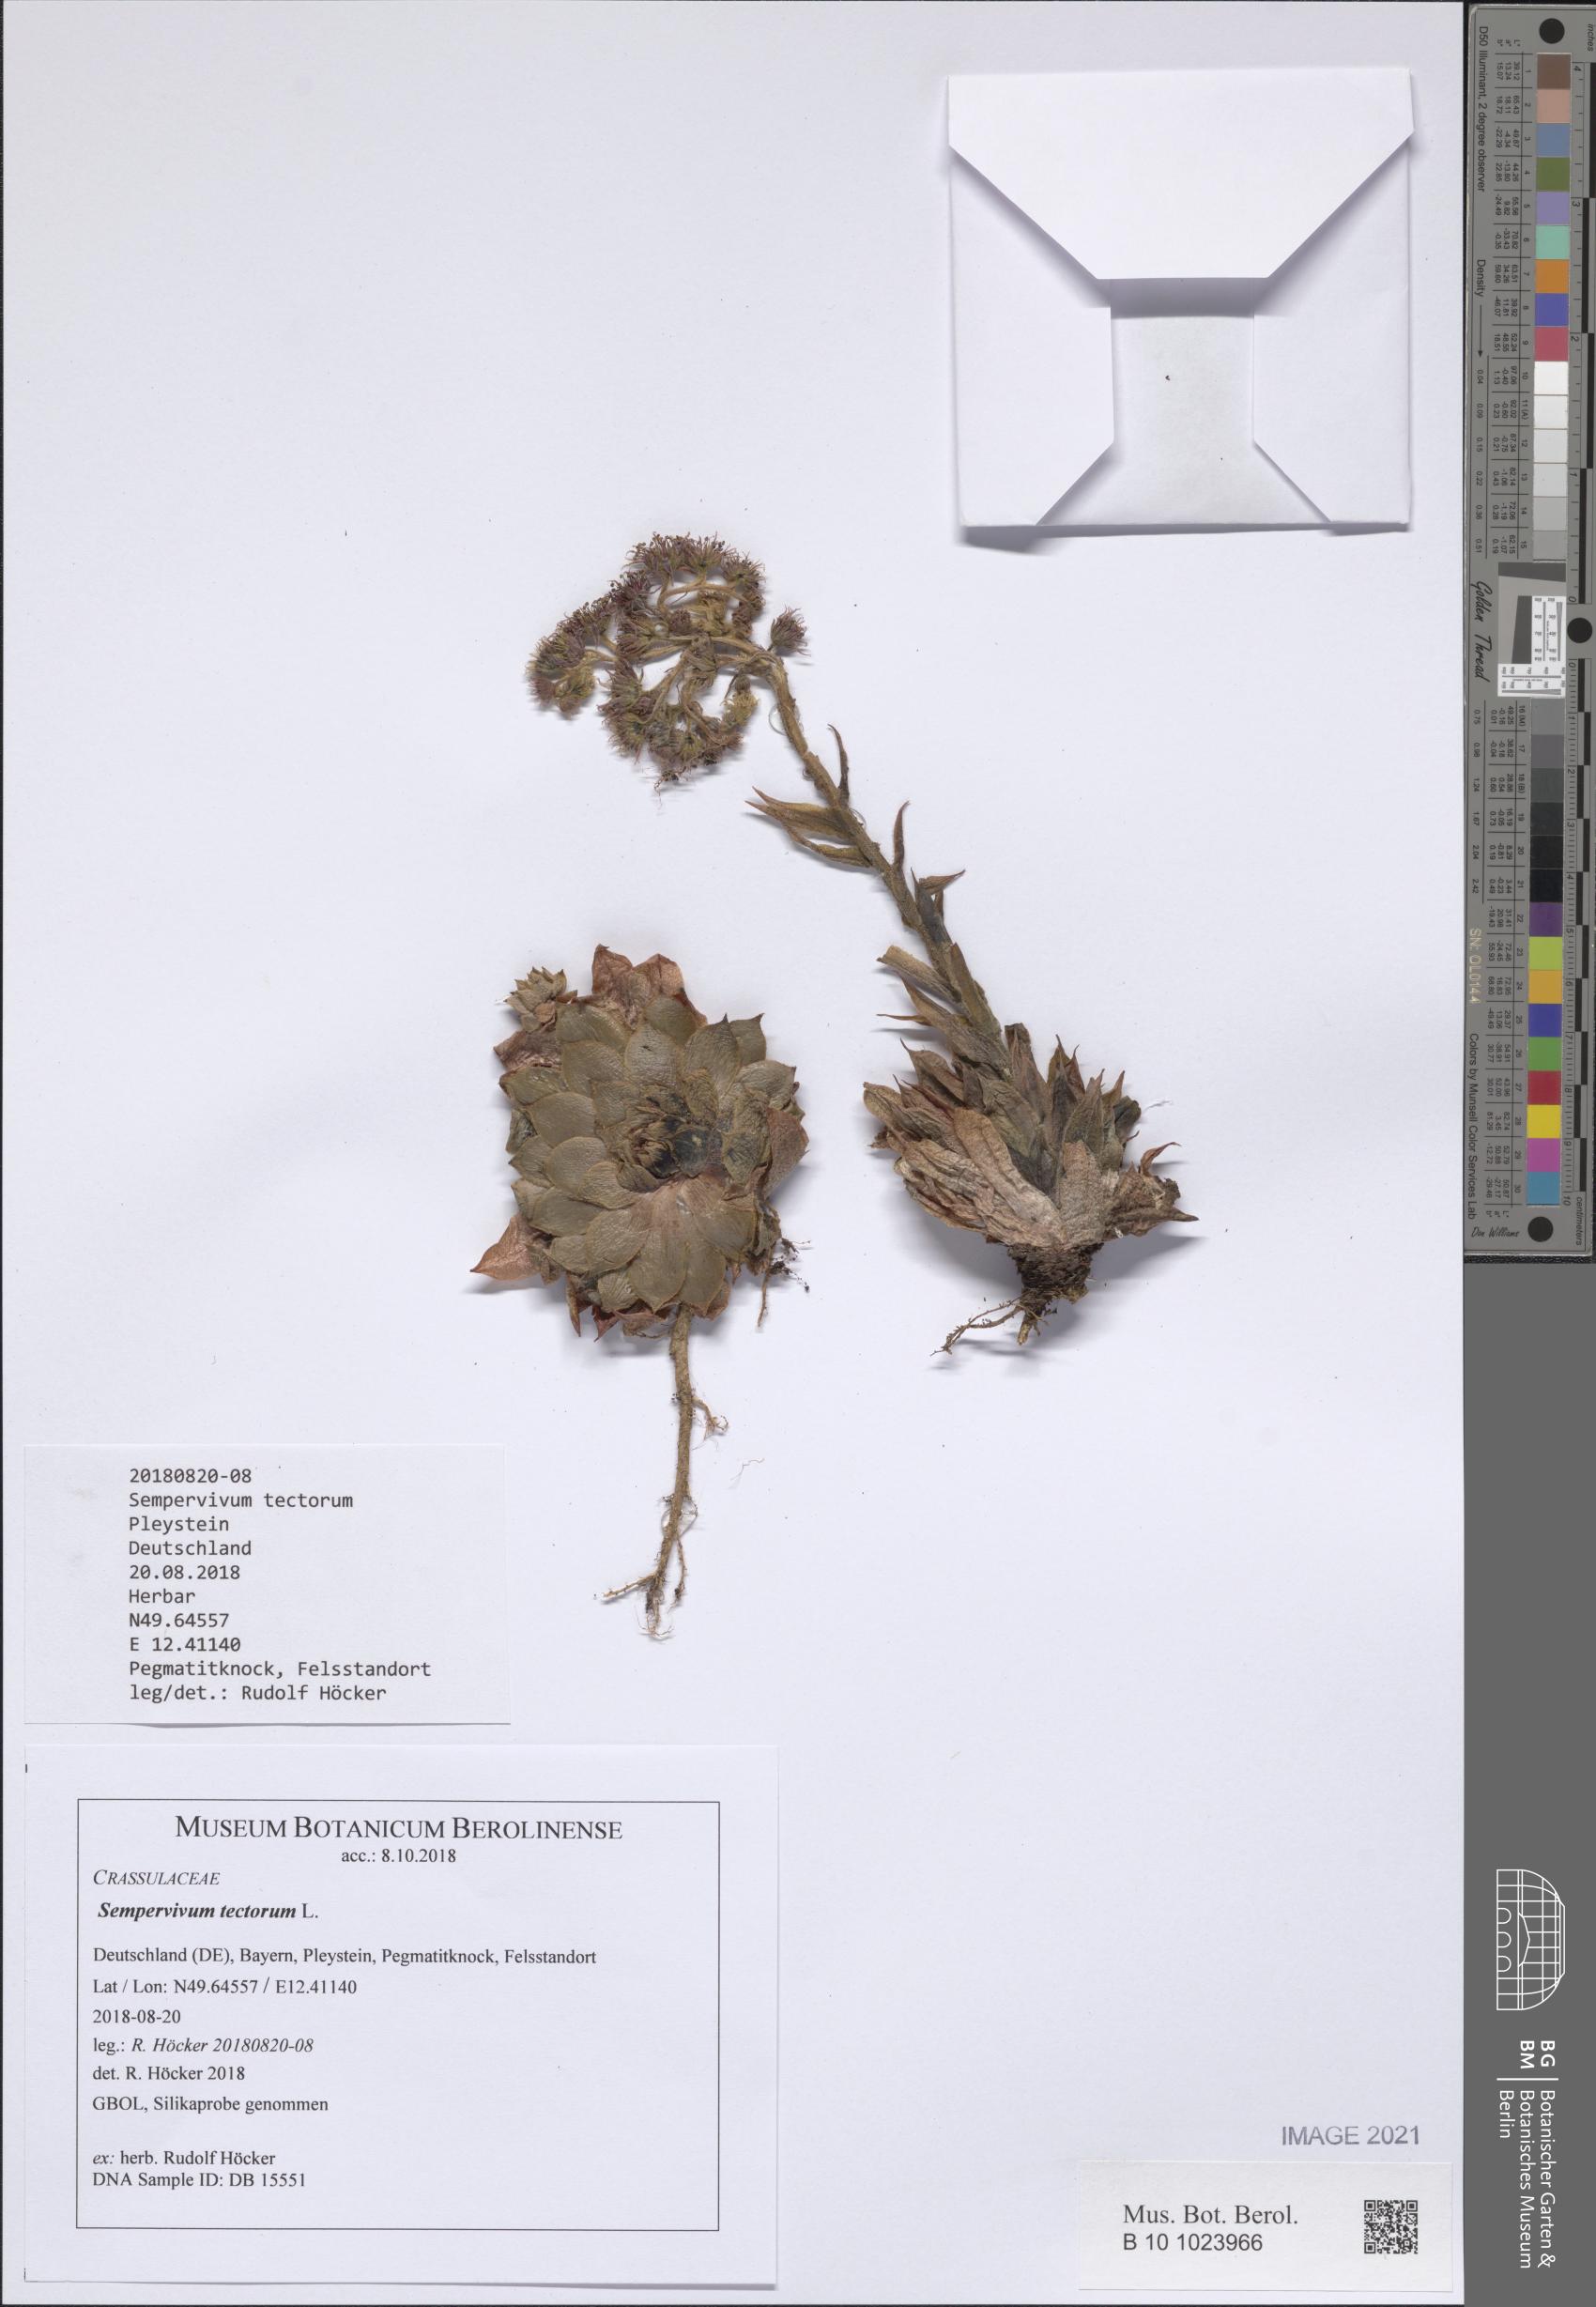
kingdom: Plantae
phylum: Tracheophyta
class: Magnoliopsida
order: Saxifragales
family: Crassulaceae
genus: Sempervivum
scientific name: Sempervivum tectorum
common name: House-leek
